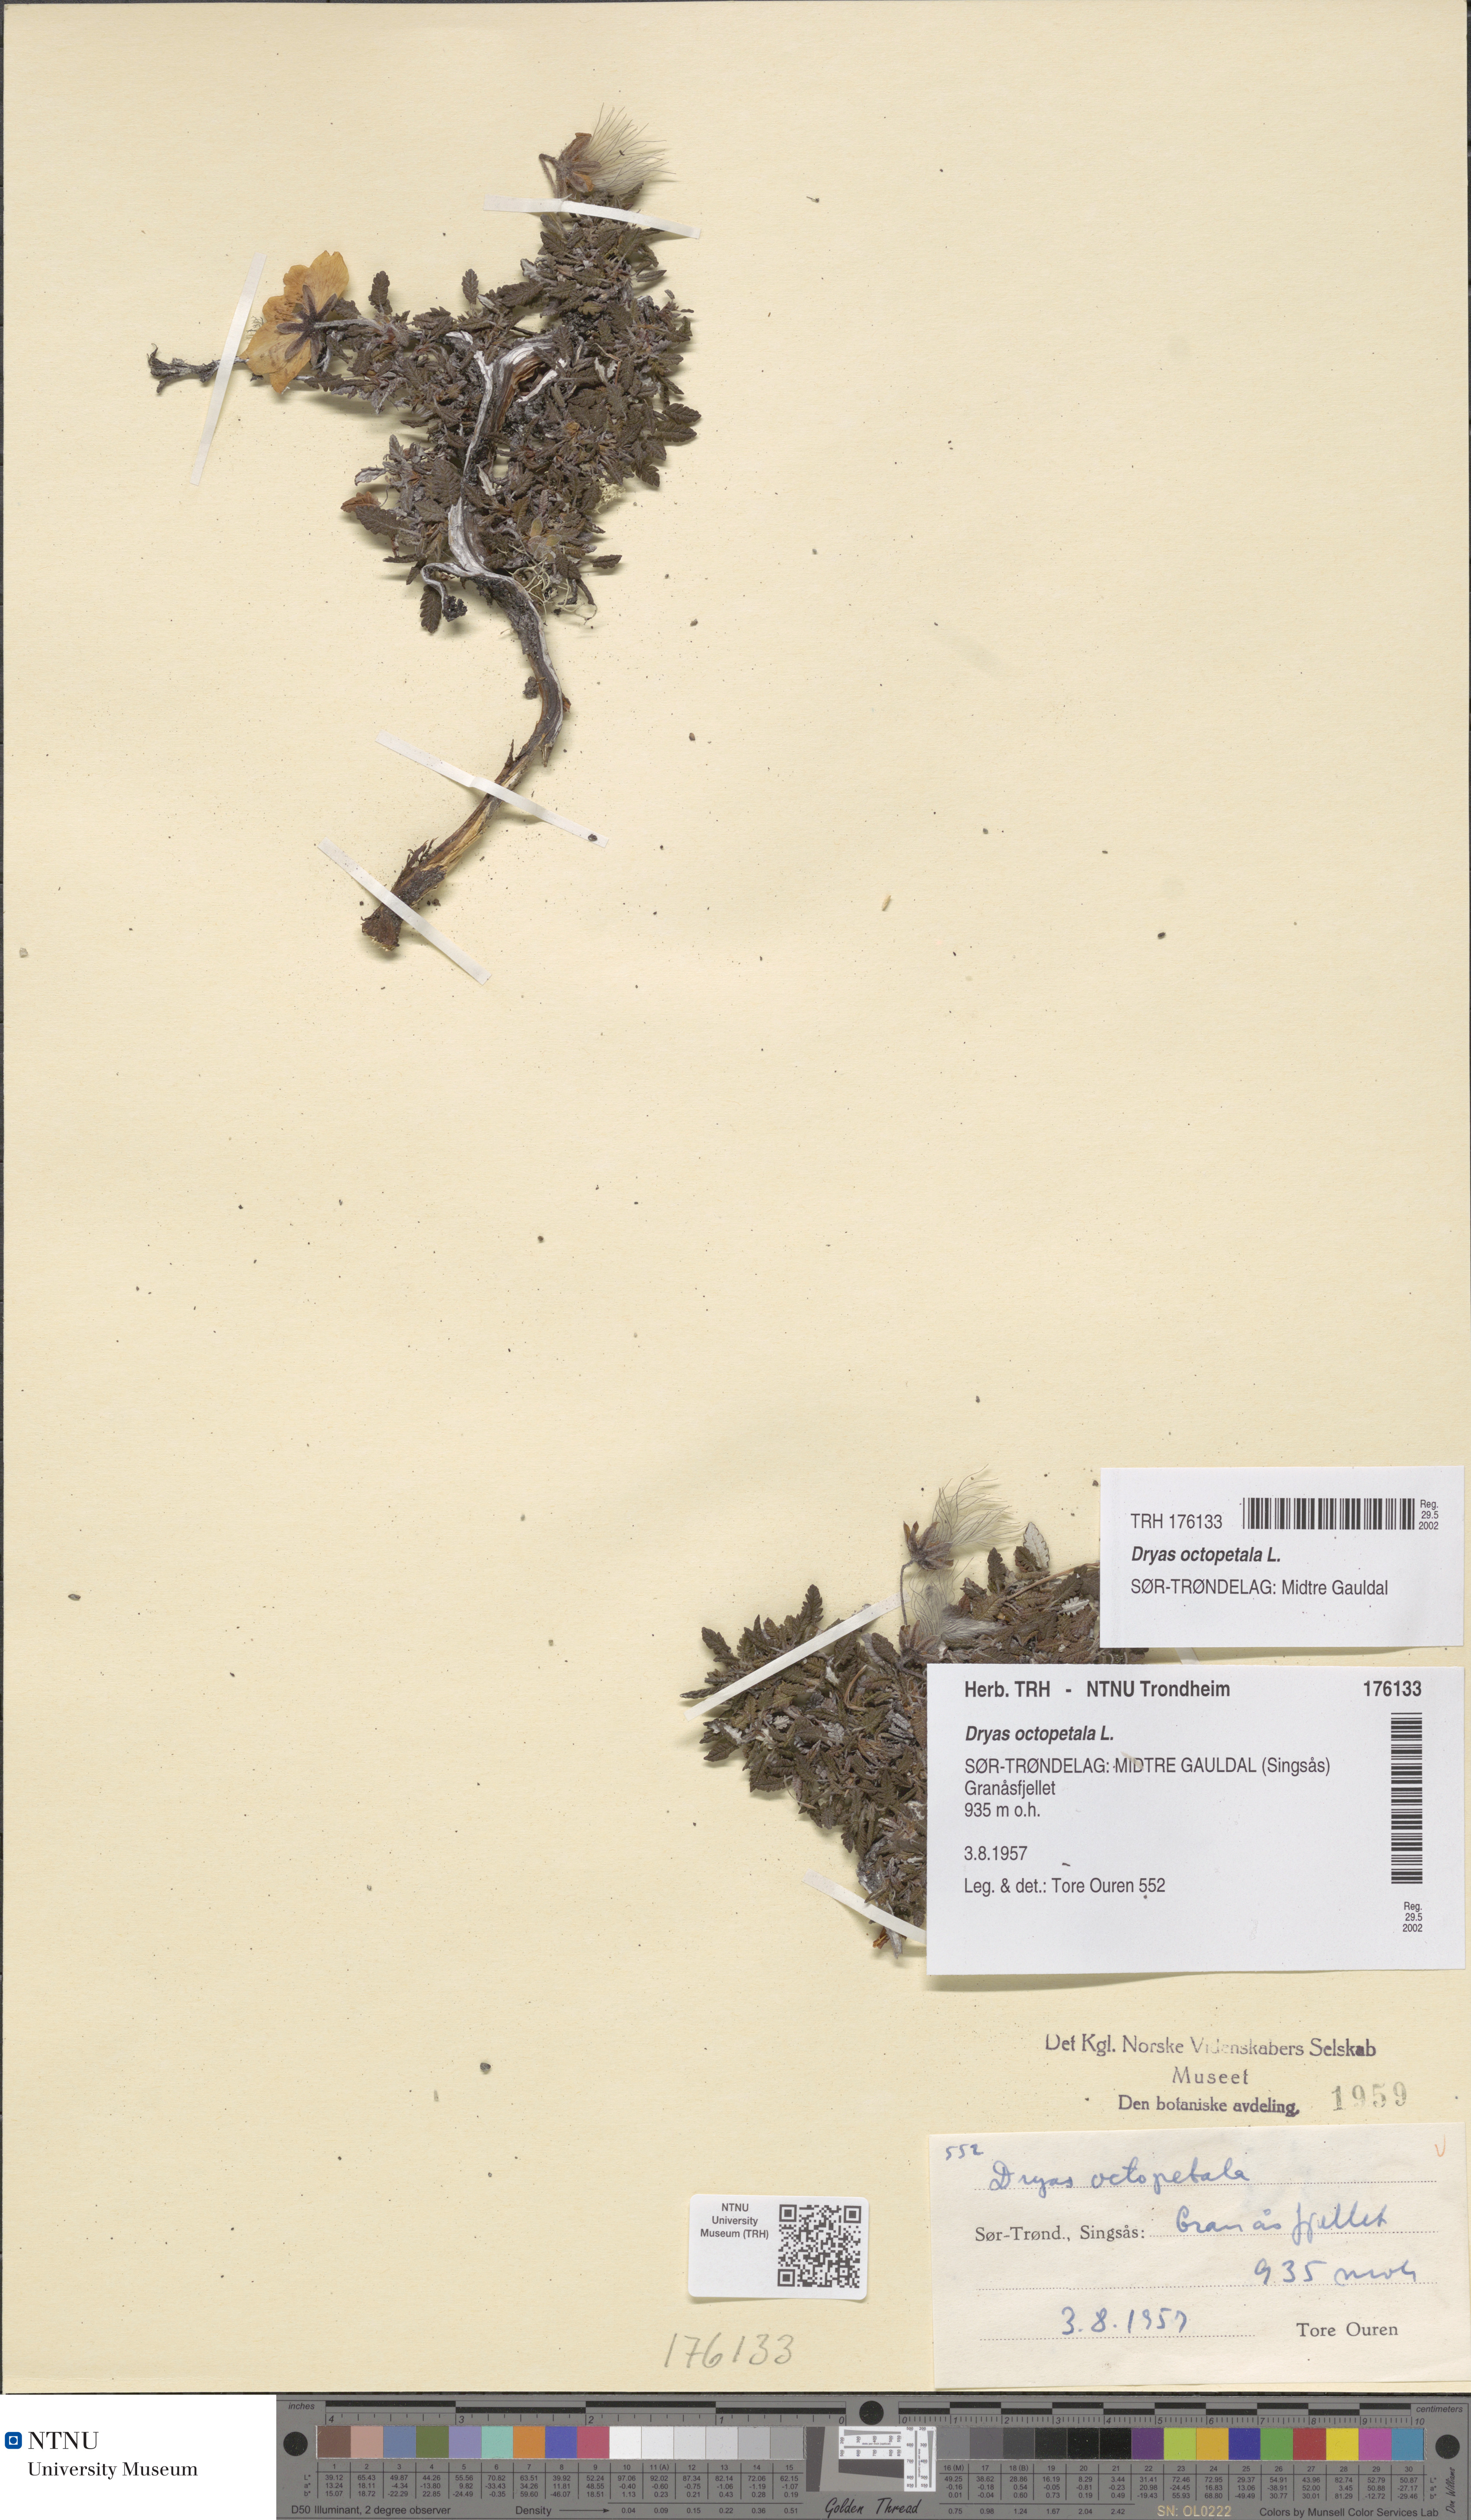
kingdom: Plantae
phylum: Tracheophyta
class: Magnoliopsida
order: Rosales
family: Rosaceae
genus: Dryas
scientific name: Dryas octopetala
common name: Eight-petal mountain-avens
